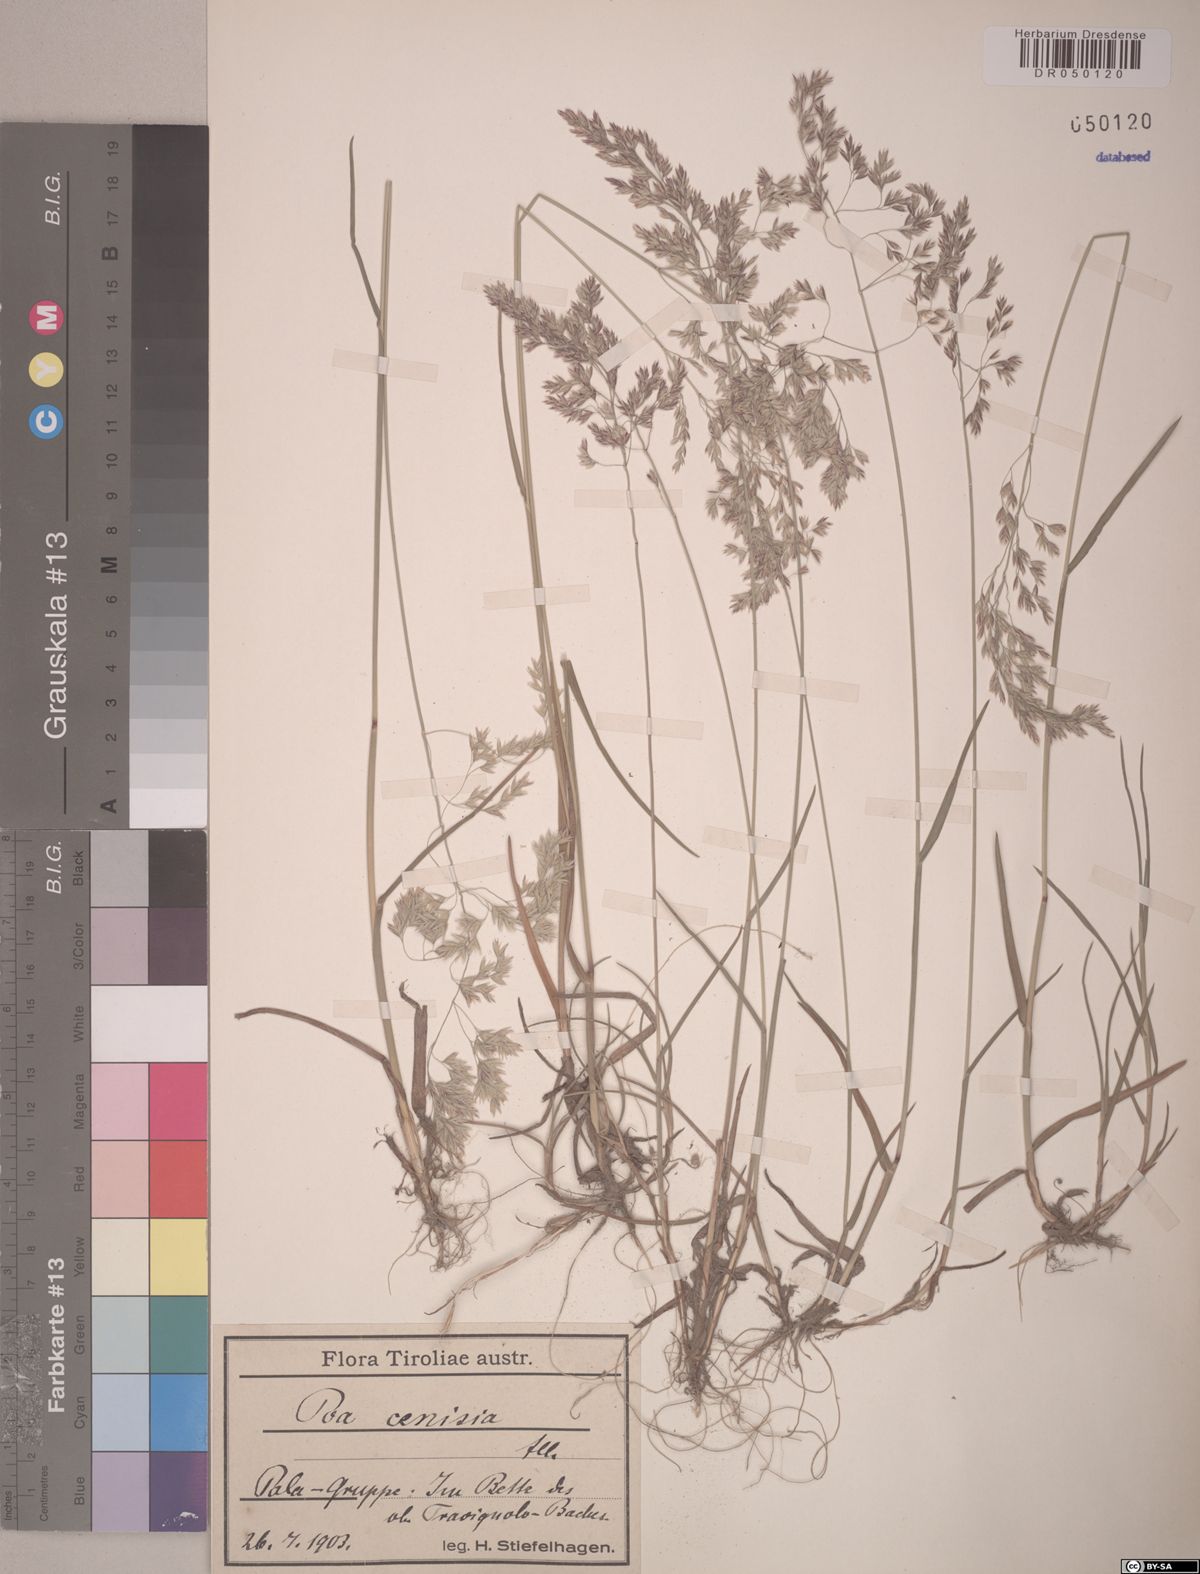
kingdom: Plantae
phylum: Tracheophyta
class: Liliopsida
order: Poales
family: Poaceae
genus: Poa
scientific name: Poa cenisia
